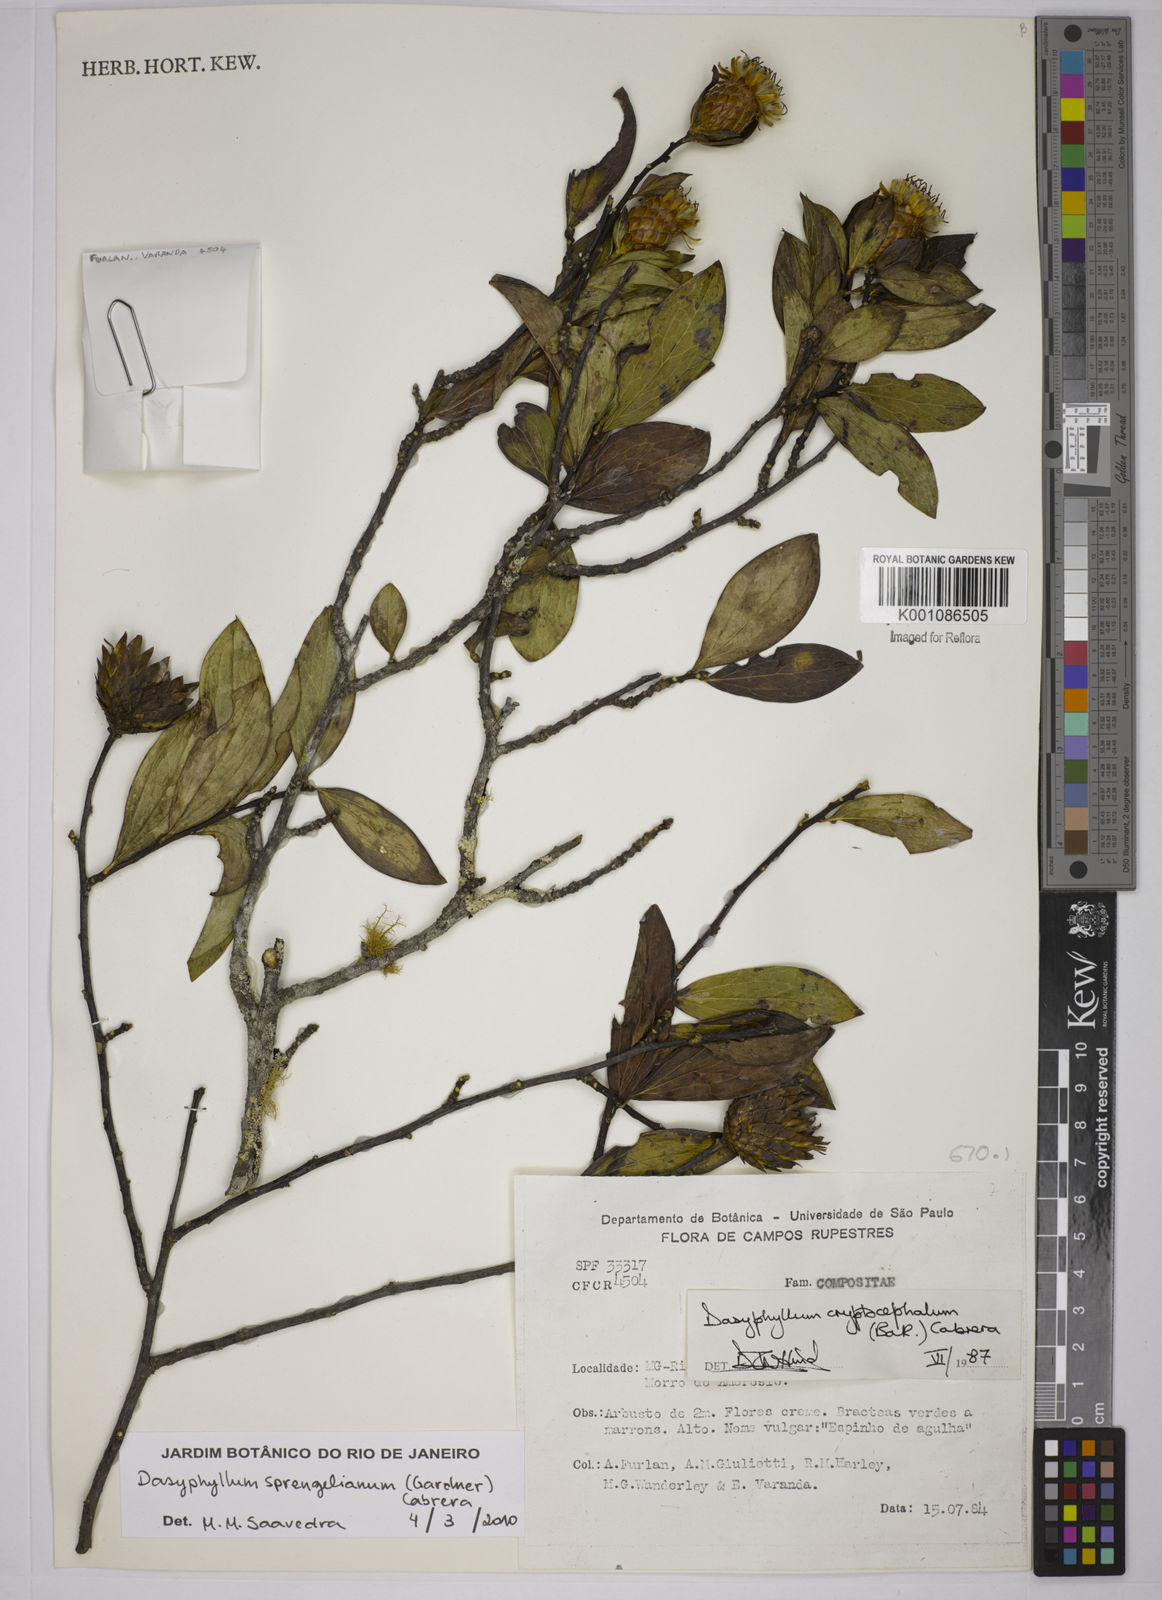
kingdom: Plantae
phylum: Tracheophyta
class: Magnoliopsida
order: Asterales
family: Asteraceae
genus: Dasyphyllum
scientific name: Dasyphyllum sprengelianum
